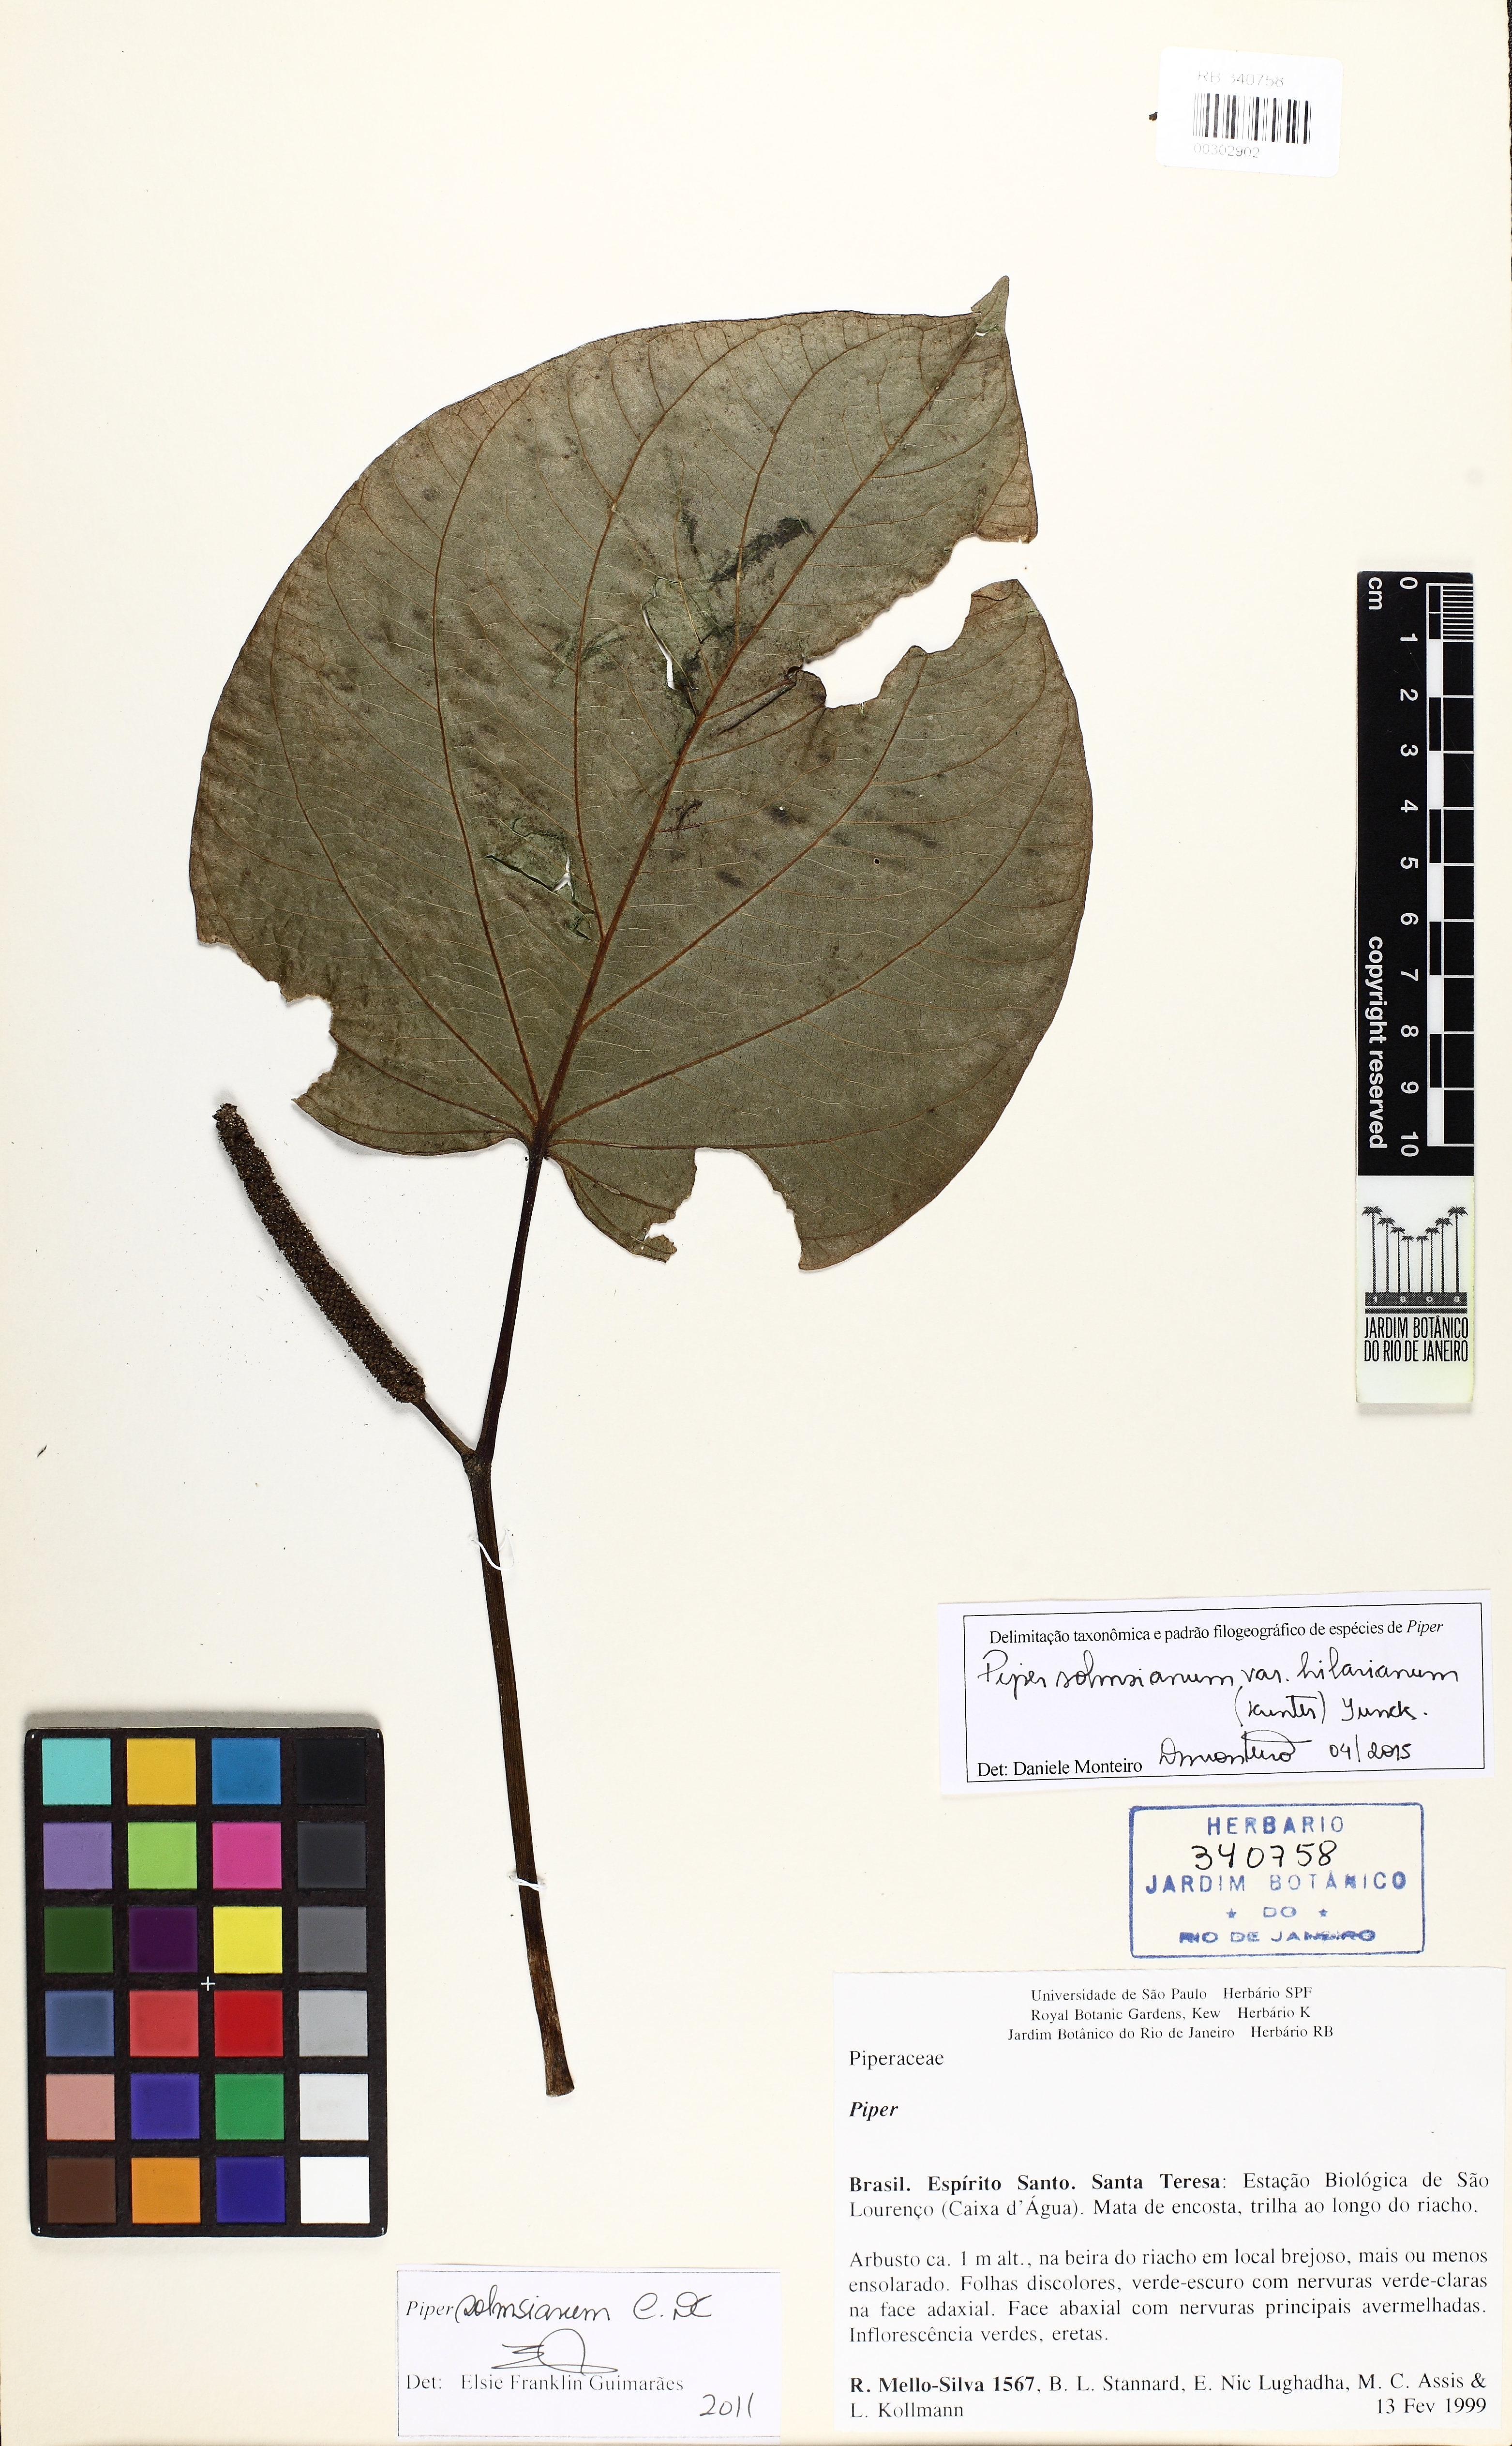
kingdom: Plantae
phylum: Tracheophyta
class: Magnoliopsida
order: Piperales
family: Piperaceae
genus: Piper
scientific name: Piper solmsianum
